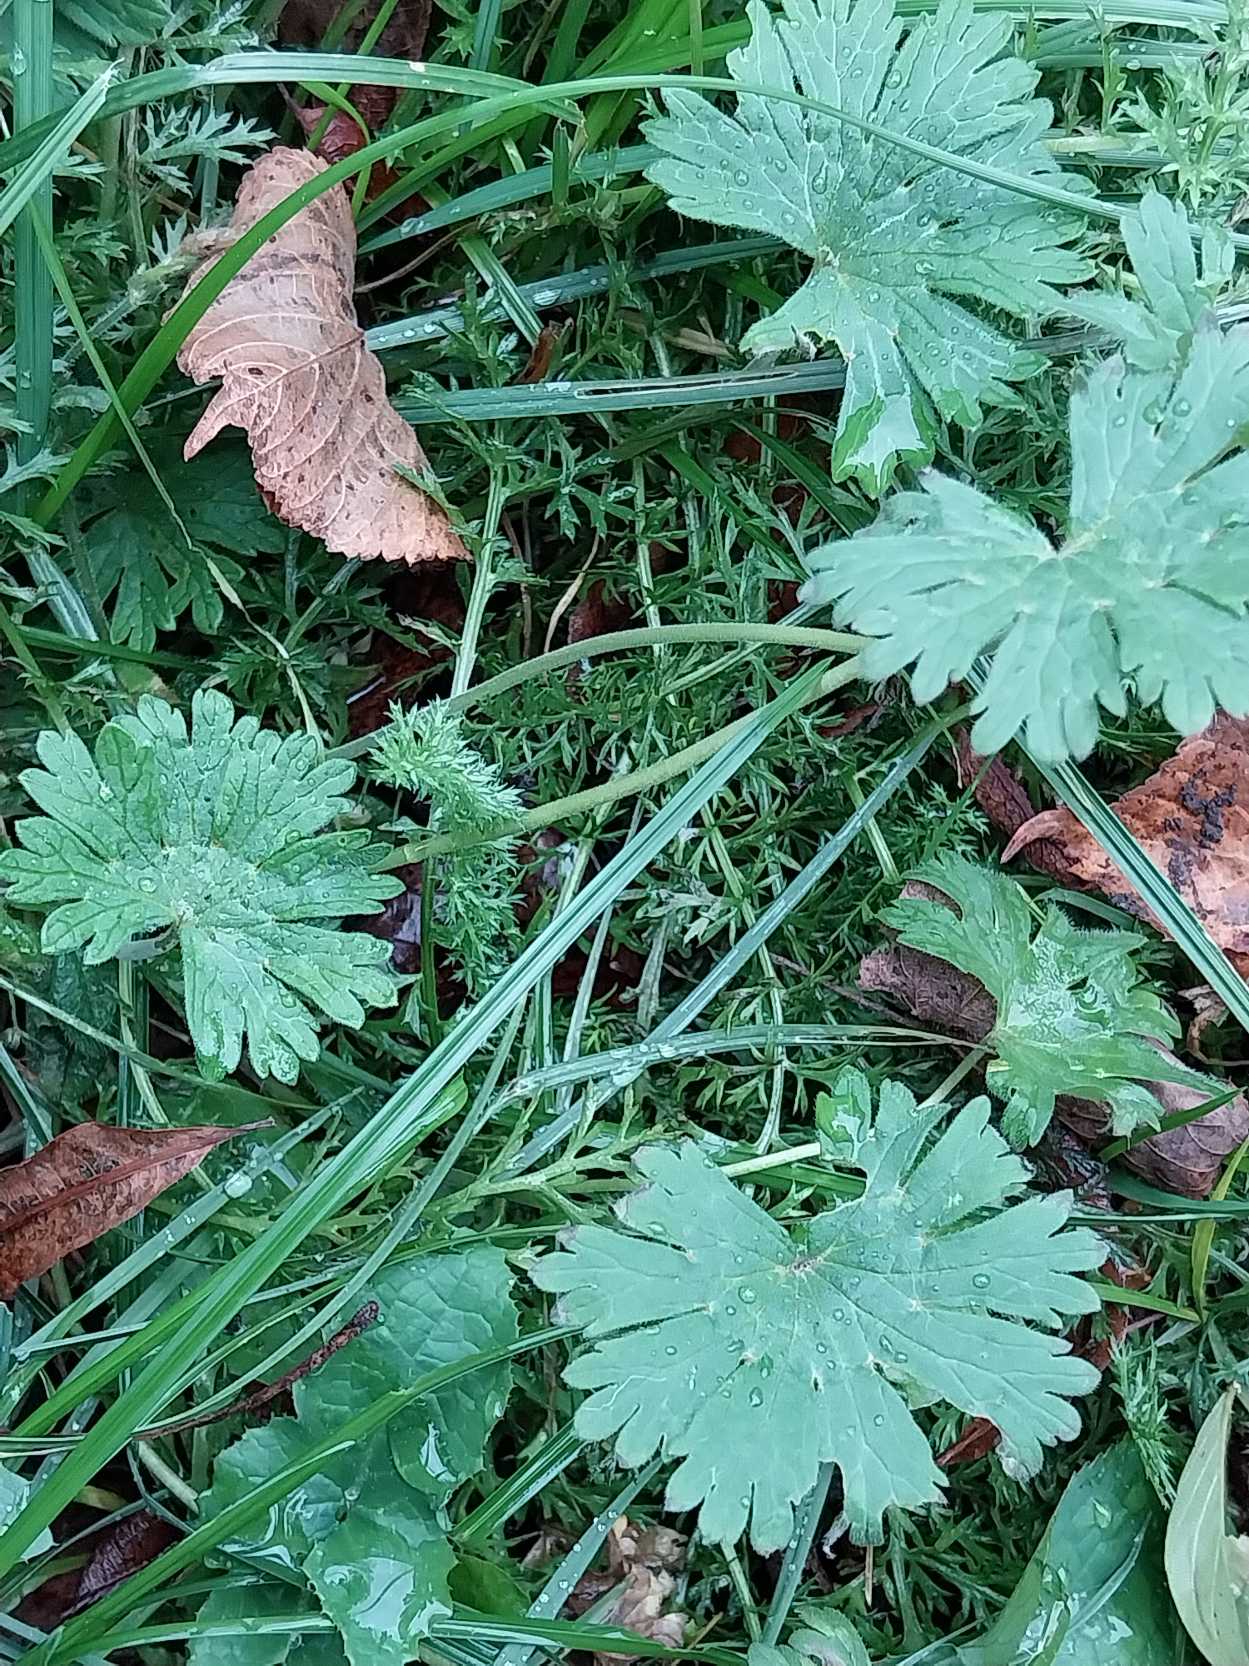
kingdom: Plantae
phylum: Tracheophyta
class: Magnoliopsida
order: Geraniales
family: Geraniaceae
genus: Geranium
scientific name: Geranium pusillum
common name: Liden storkenæb
